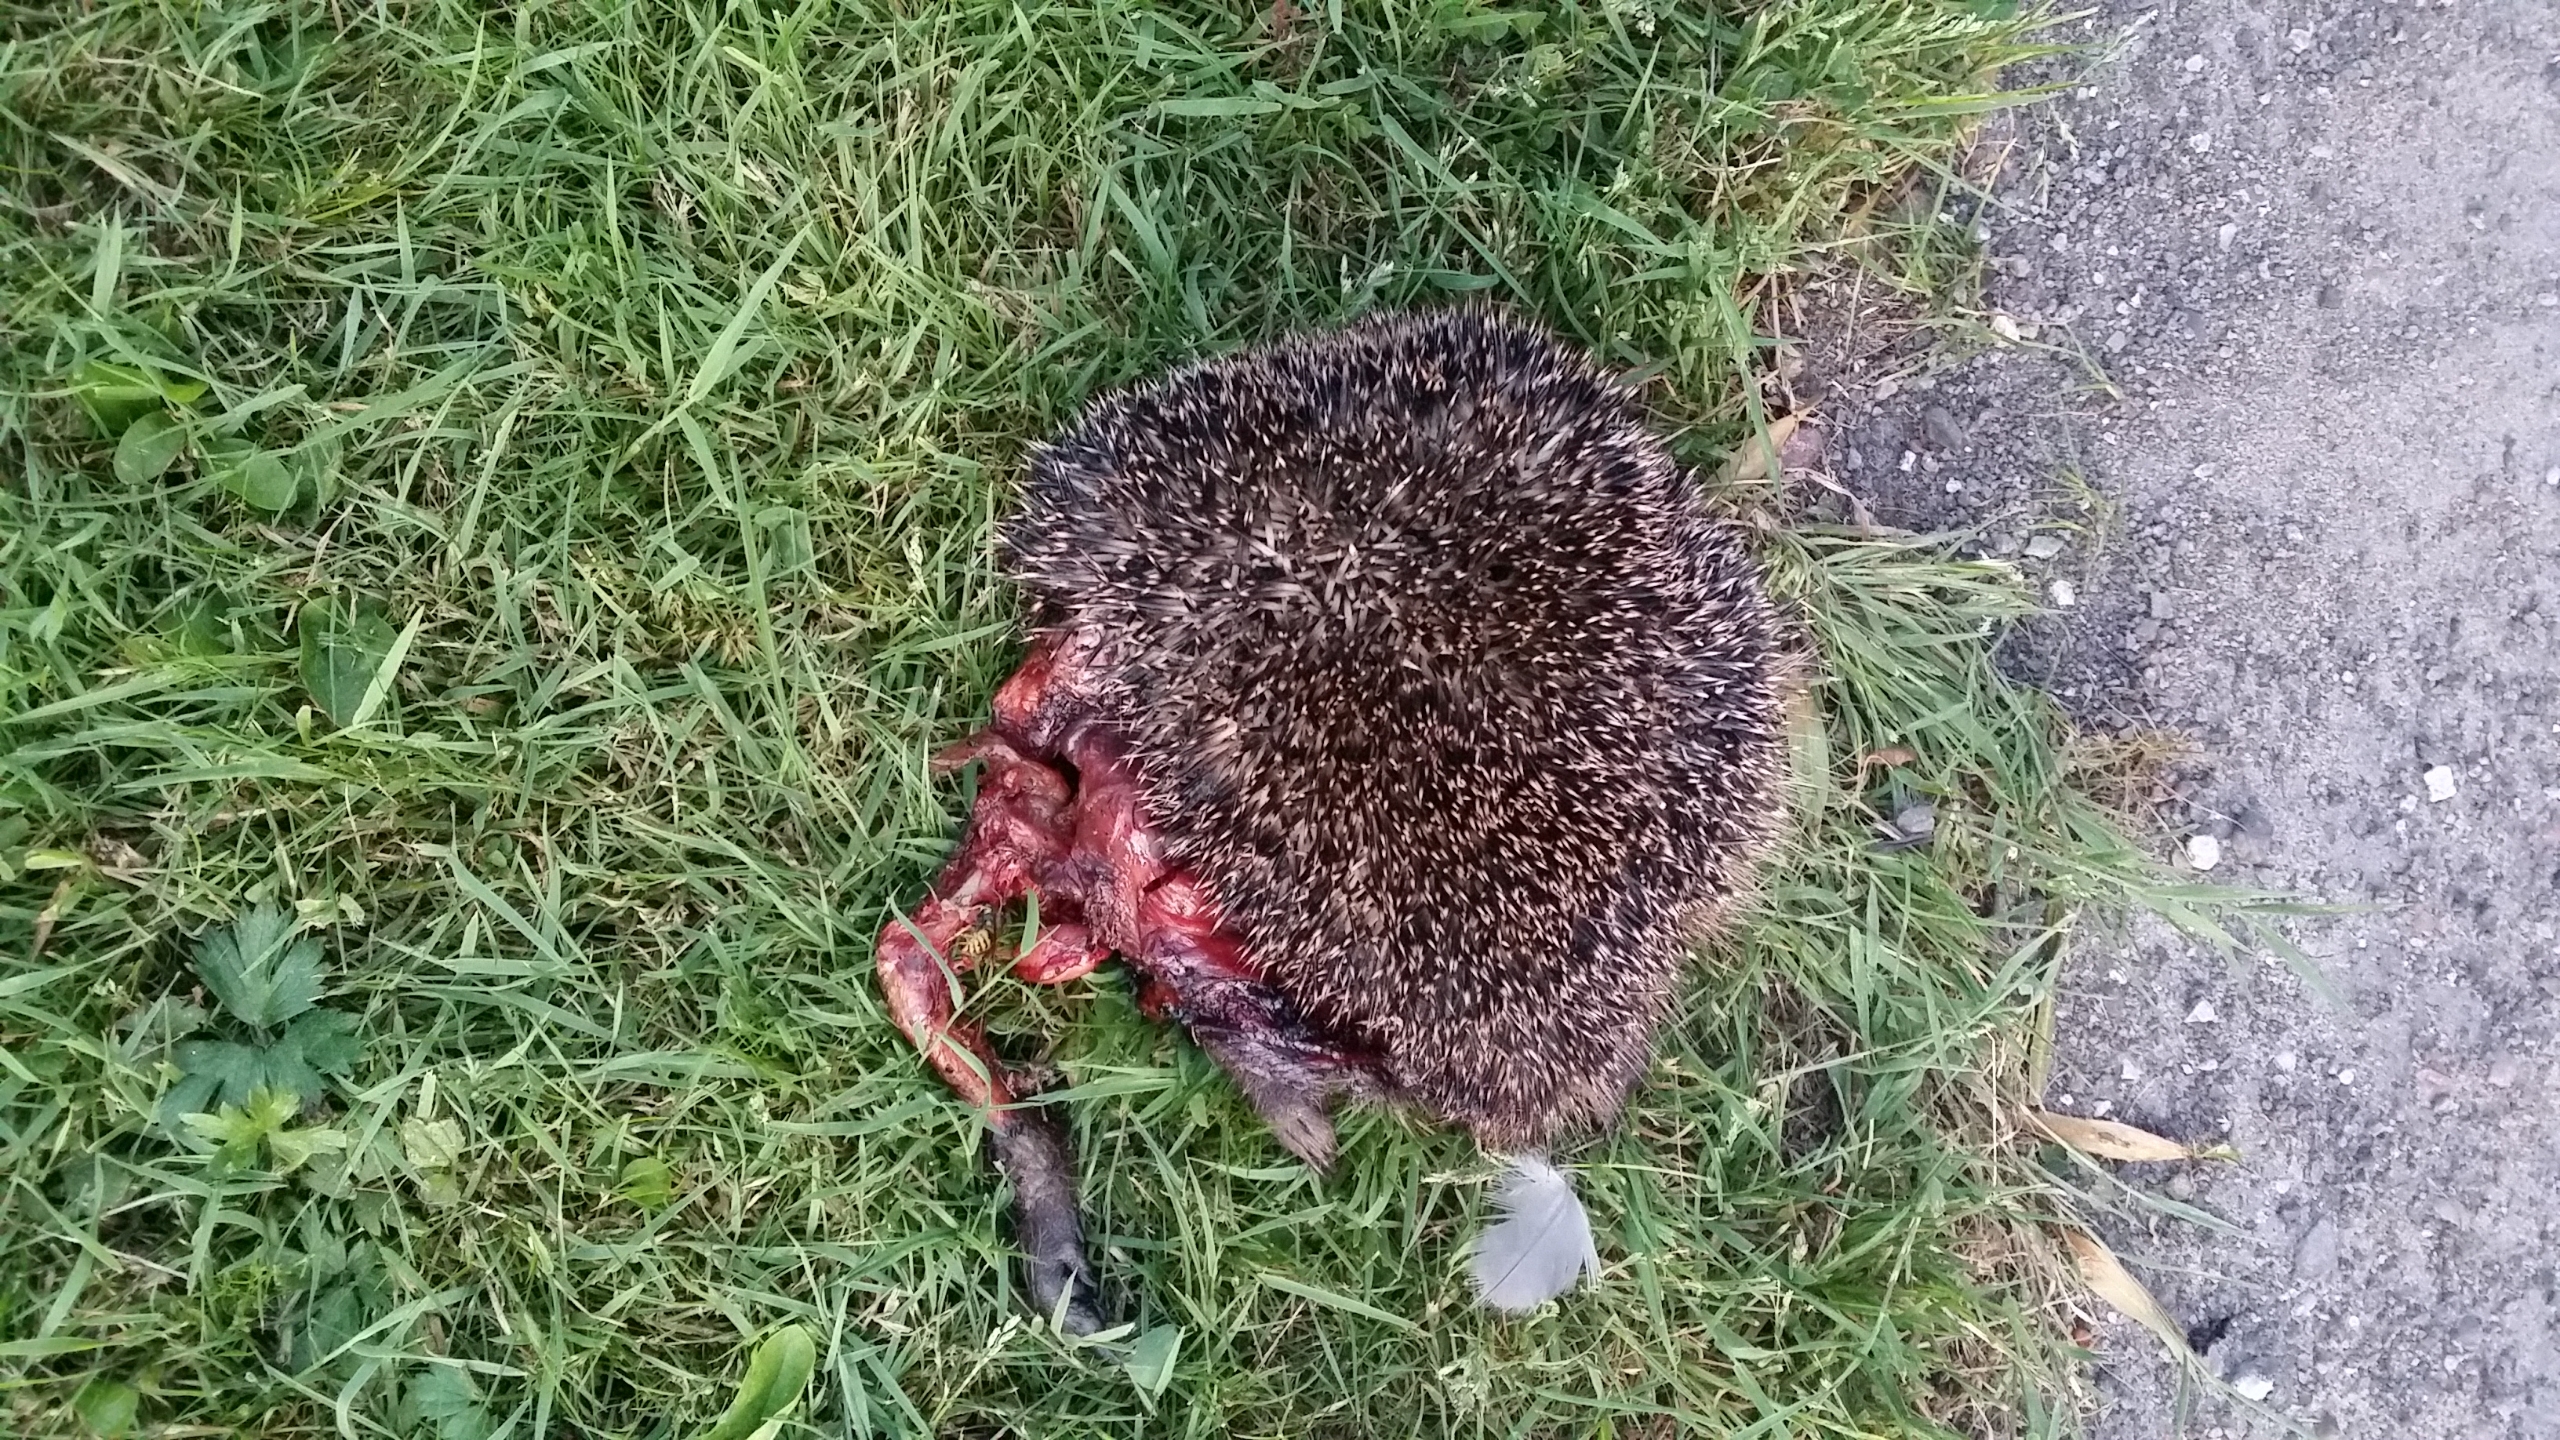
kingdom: Animalia
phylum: Chordata
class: Mammalia
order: Erinaceomorpha
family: Erinaceidae
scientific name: Erinaceidae
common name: Pindsvin
